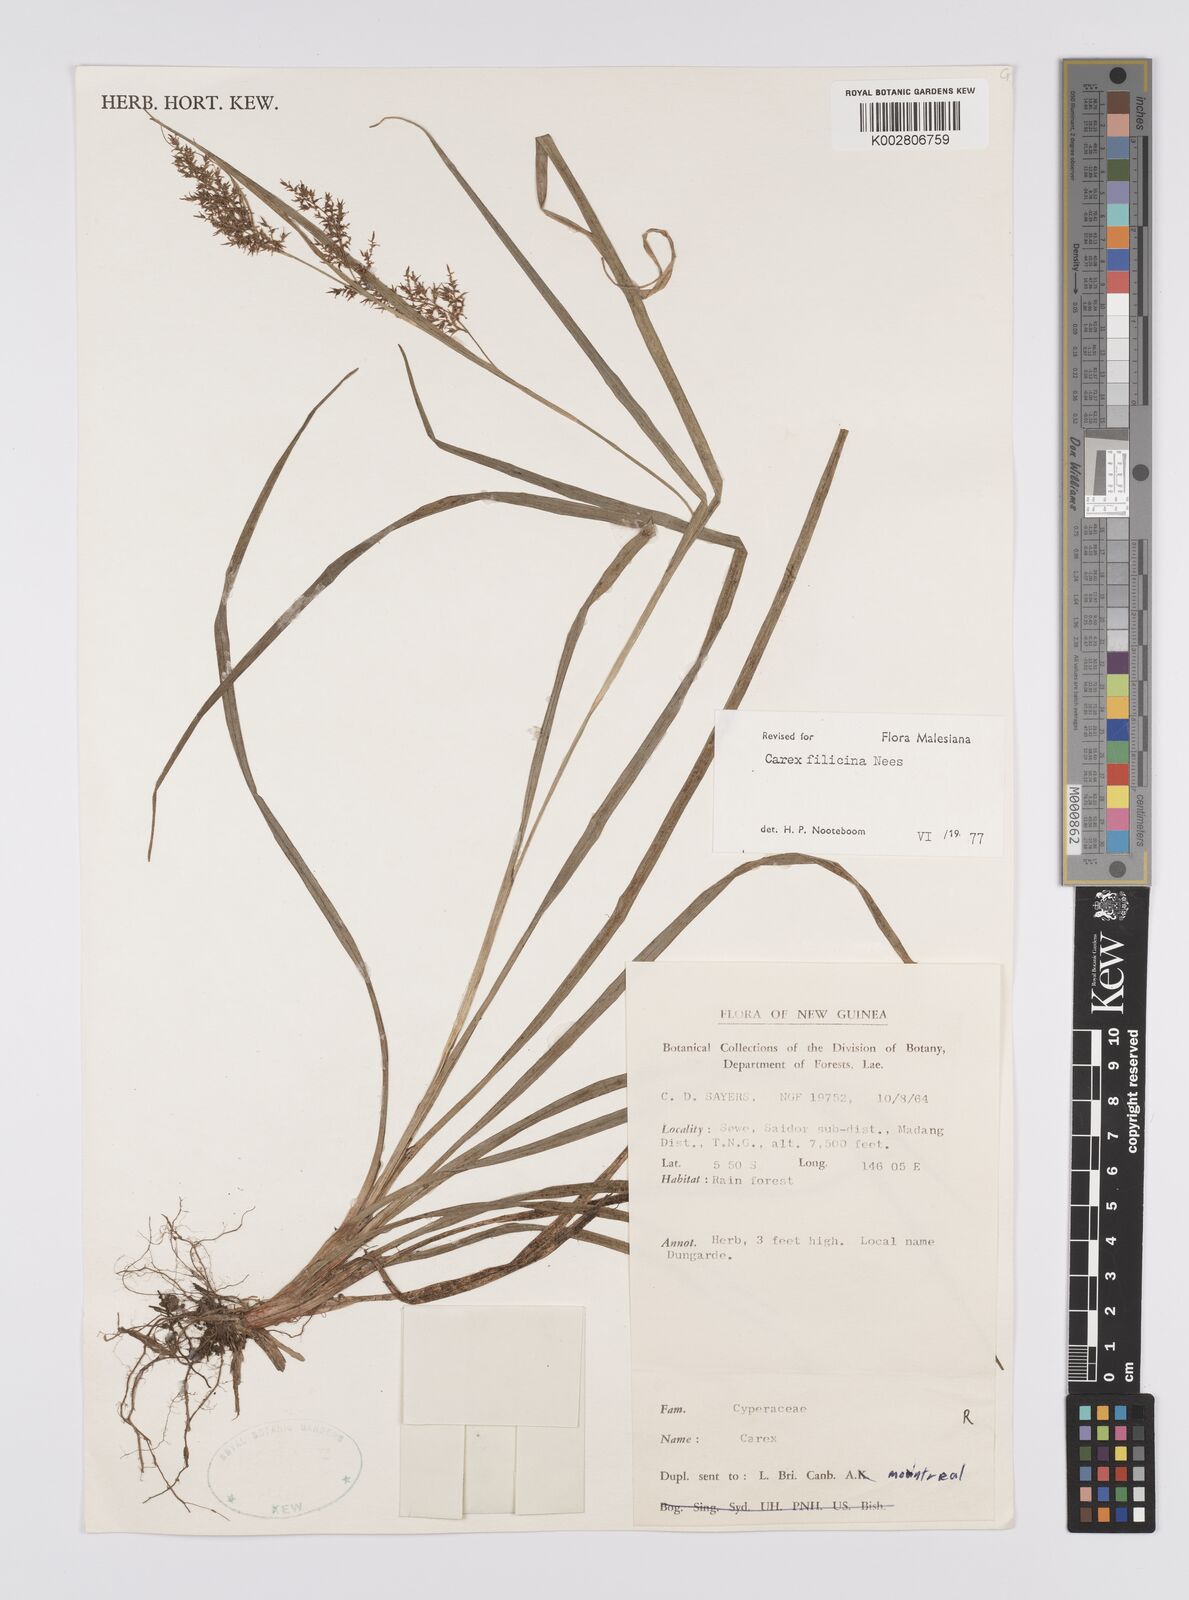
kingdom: Plantae
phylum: Tracheophyta
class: Liliopsida
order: Poales
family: Cyperaceae
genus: Carex
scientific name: Carex filicina
